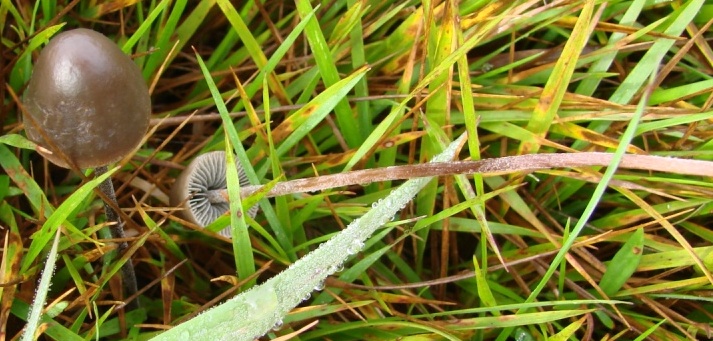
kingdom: Fungi
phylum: Basidiomycota
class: Agaricomycetes
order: Agaricales
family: Bolbitiaceae
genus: Panaeolus
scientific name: Panaeolus acuminatus
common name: høj glanshat
